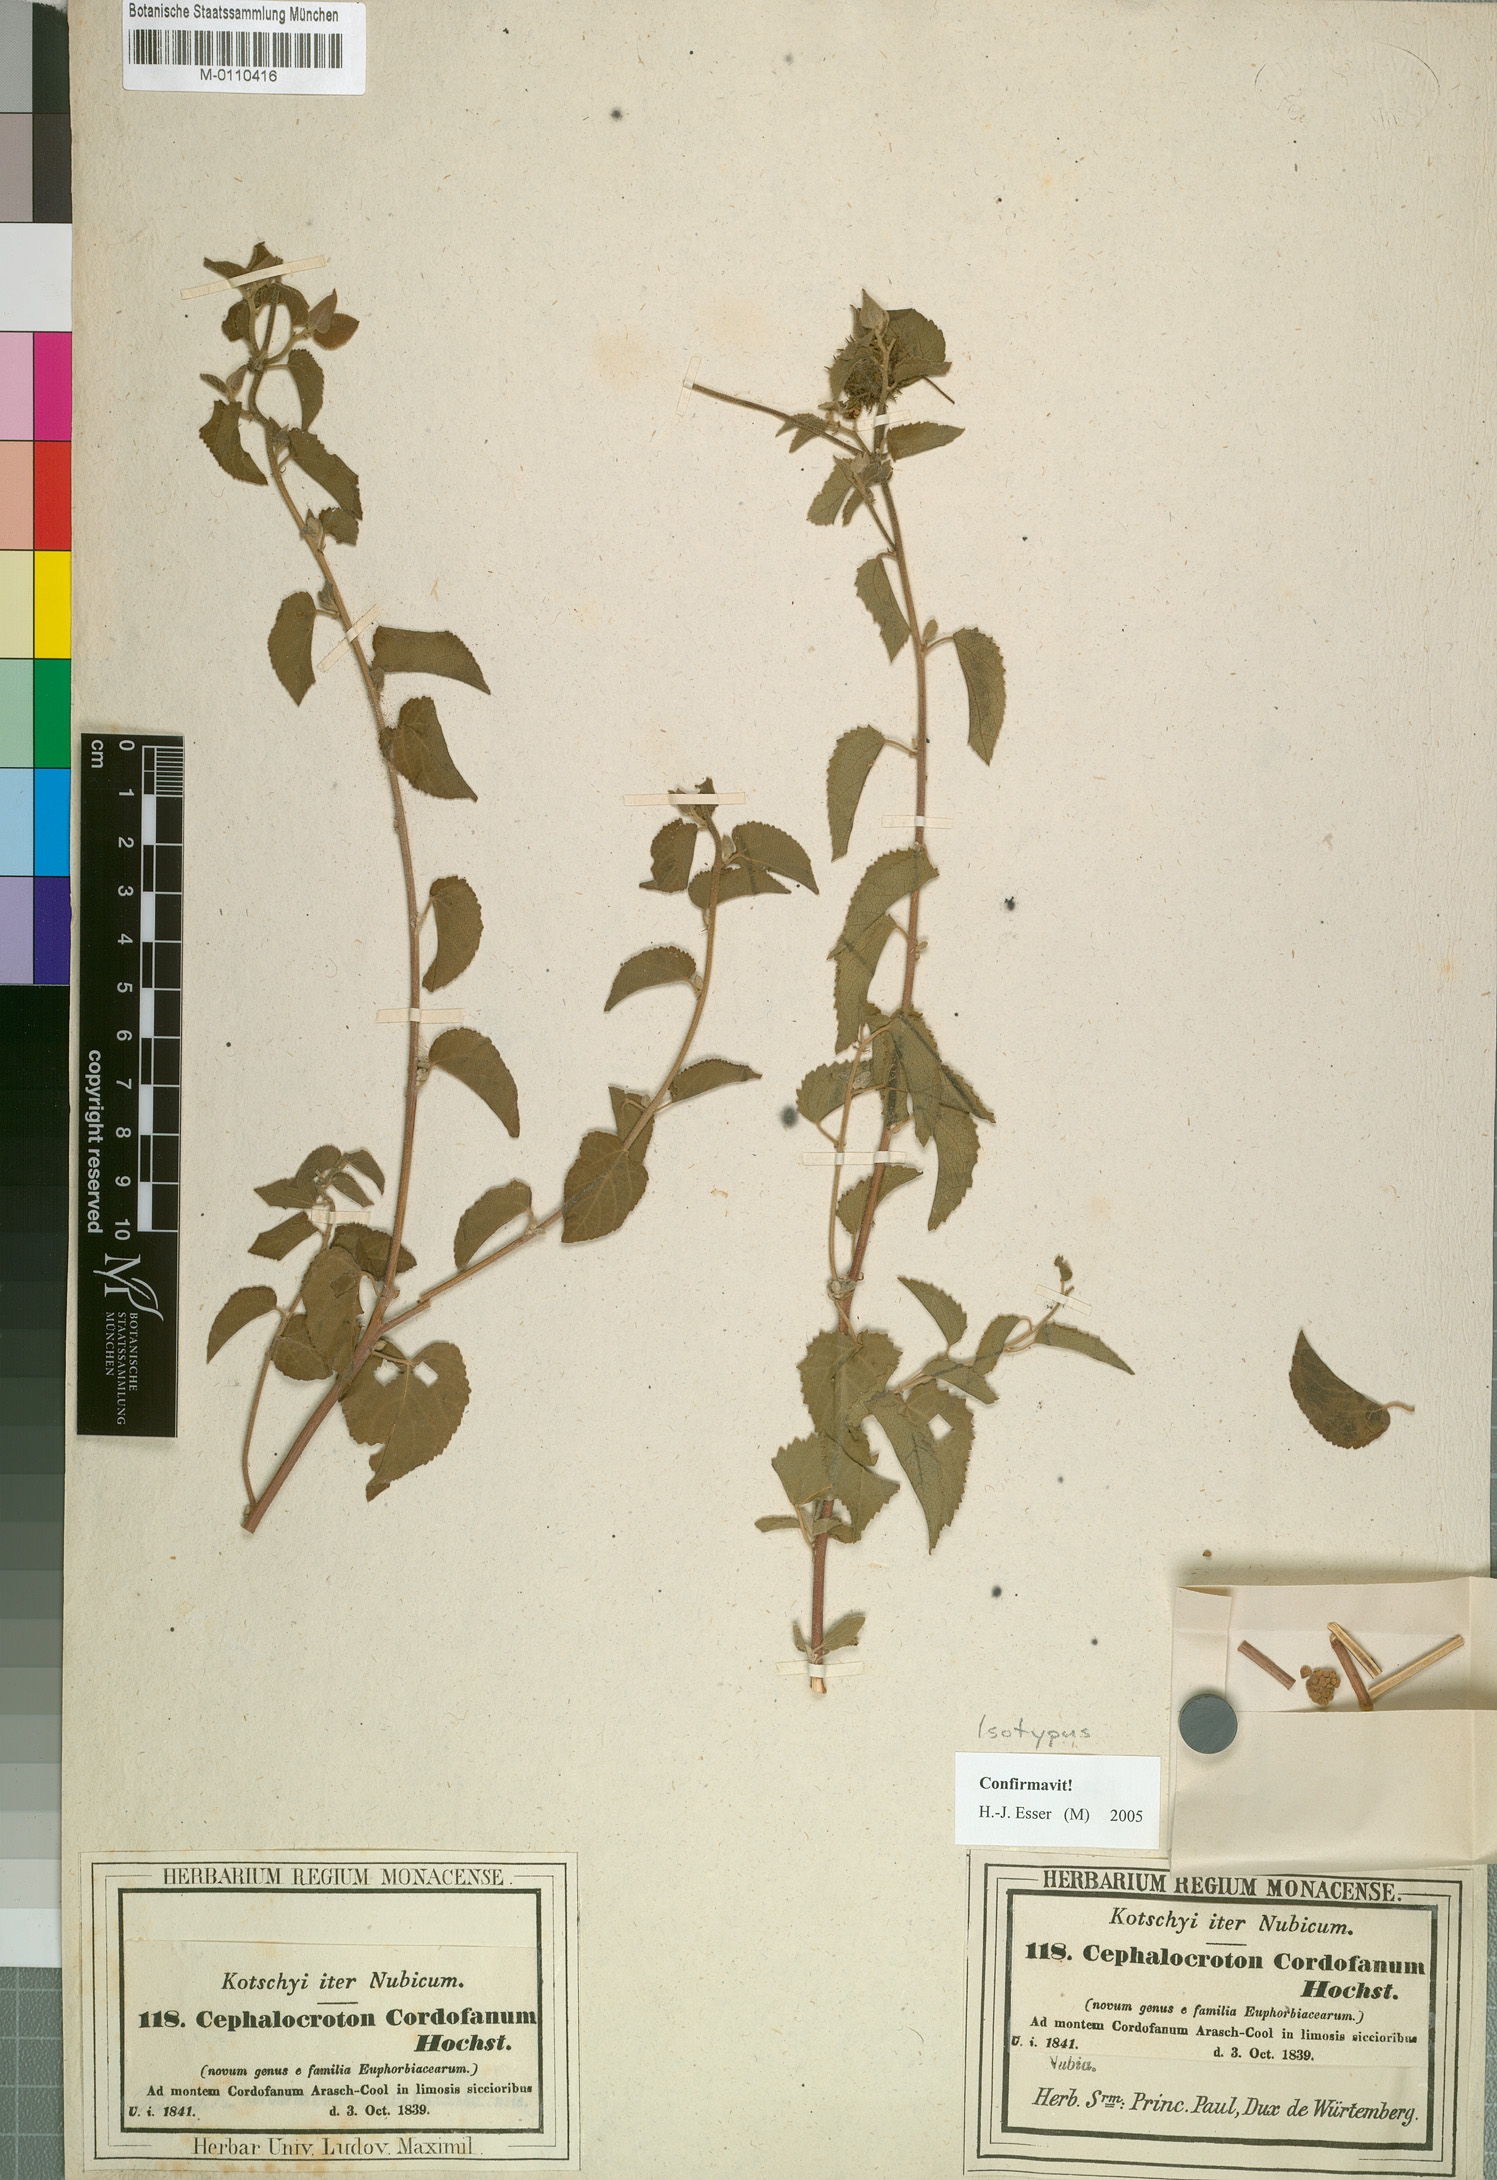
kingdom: Plantae
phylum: Tracheophyta
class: Magnoliopsida
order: Malpighiales
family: Euphorbiaceae
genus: Cephalocroton
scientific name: Cephalocroton cordofanus
